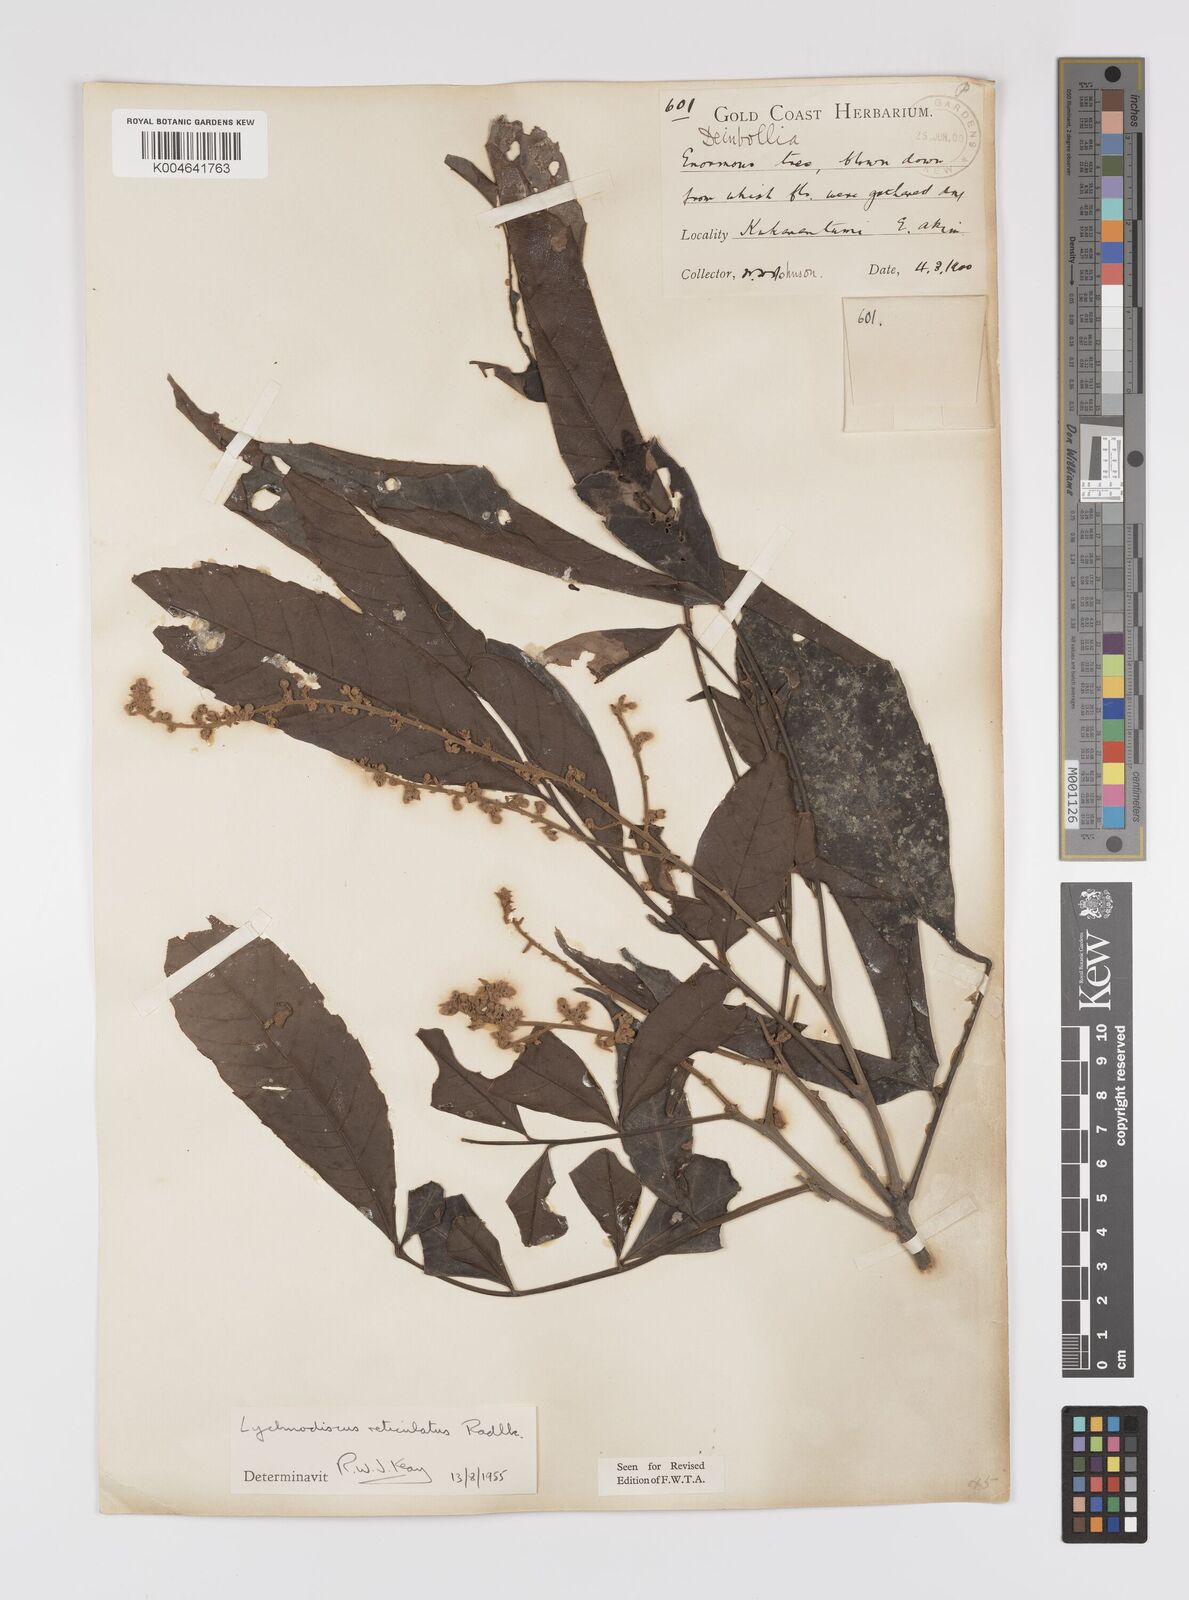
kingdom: Plantae
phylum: Tracheophyta
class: Magnoliopsida
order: Sapindales
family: Sapindaceae
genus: Lychnodiscus
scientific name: Lychnodiscus reticulatus
